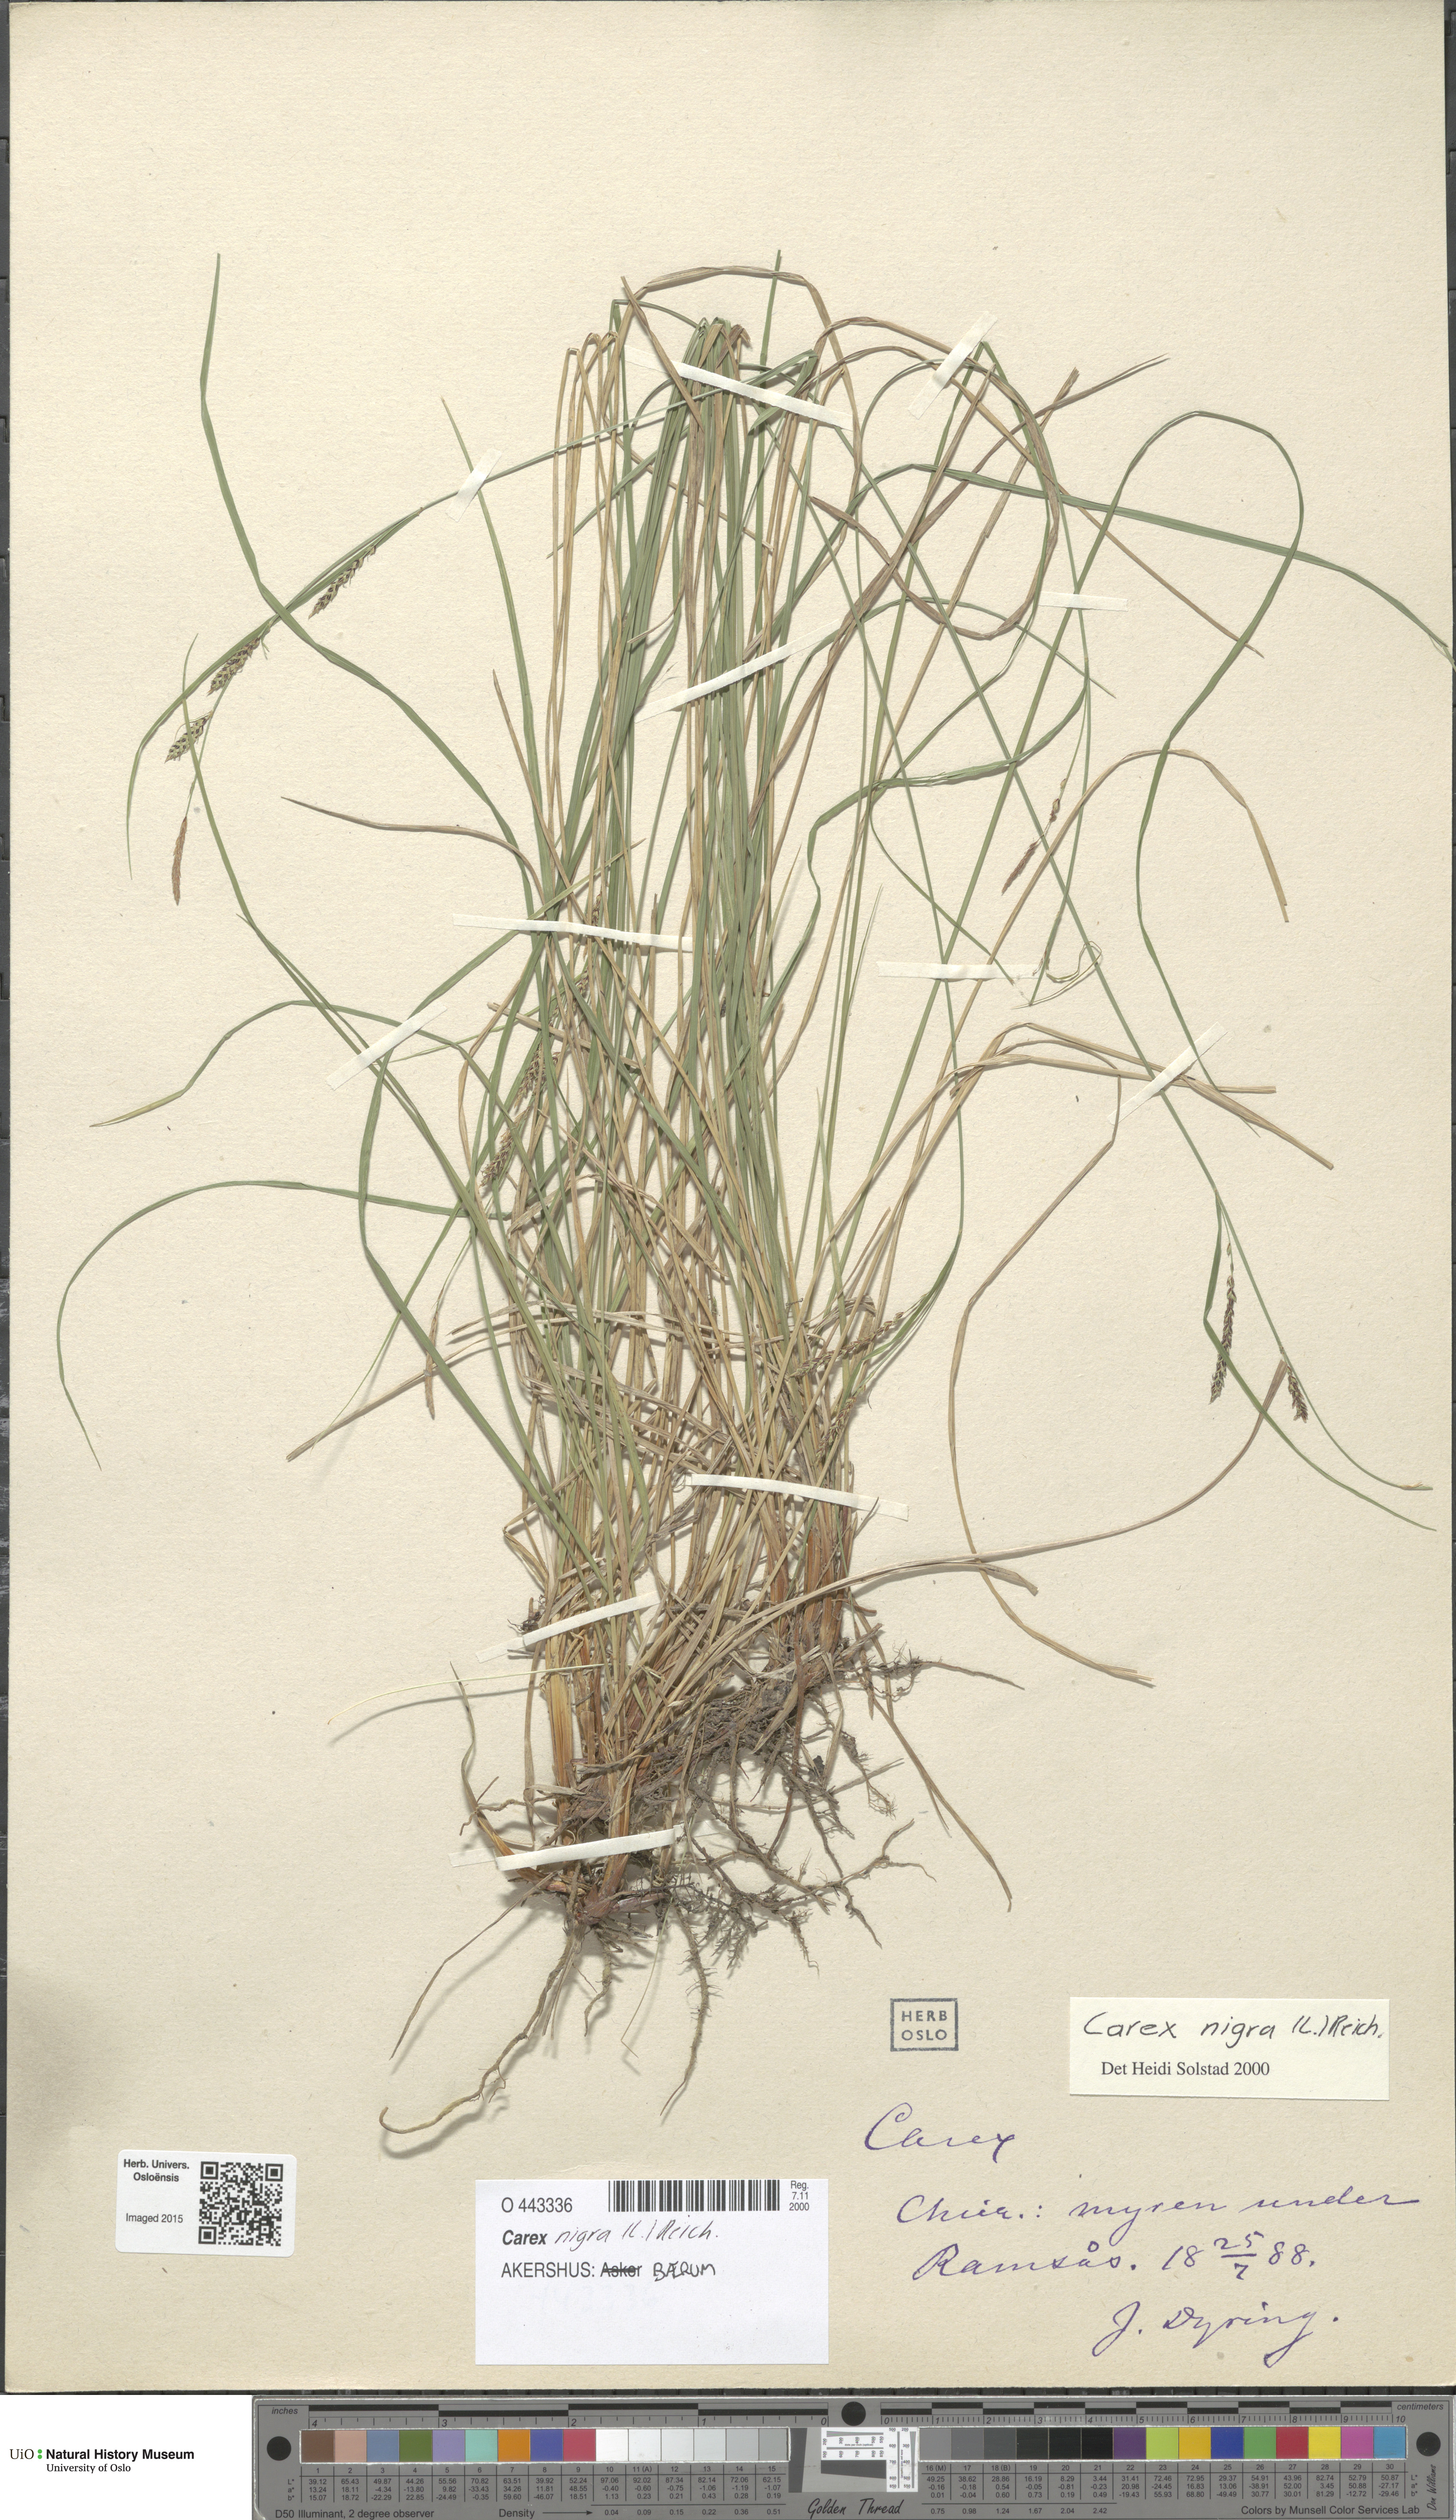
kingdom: Plantae
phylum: Tracheophyta
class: Liliopsida
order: Poales
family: Cyperaceae
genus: Carex
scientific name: Carex nigra
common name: Common sedge
